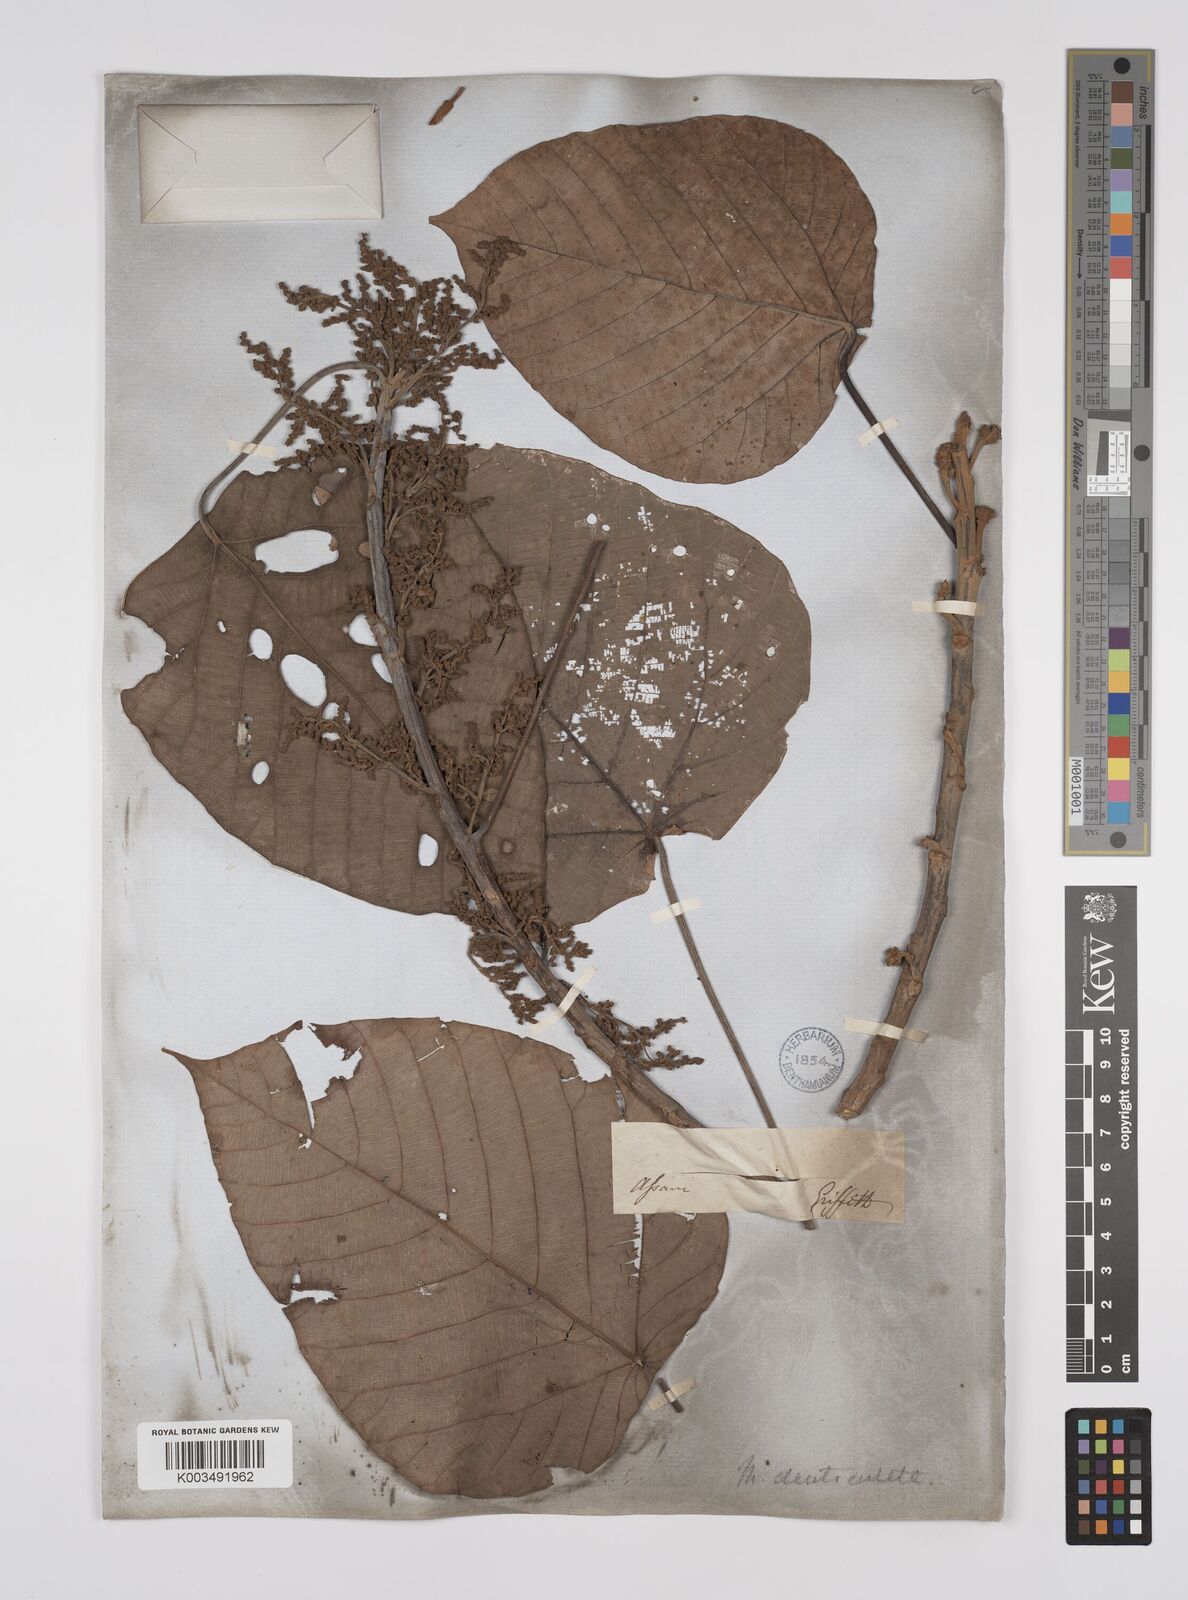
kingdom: Plantae
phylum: Tracheophyta
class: Magnoliopsida
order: Malpighiales
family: Euphorbiaceae
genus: Macaranga
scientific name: Macaranga
